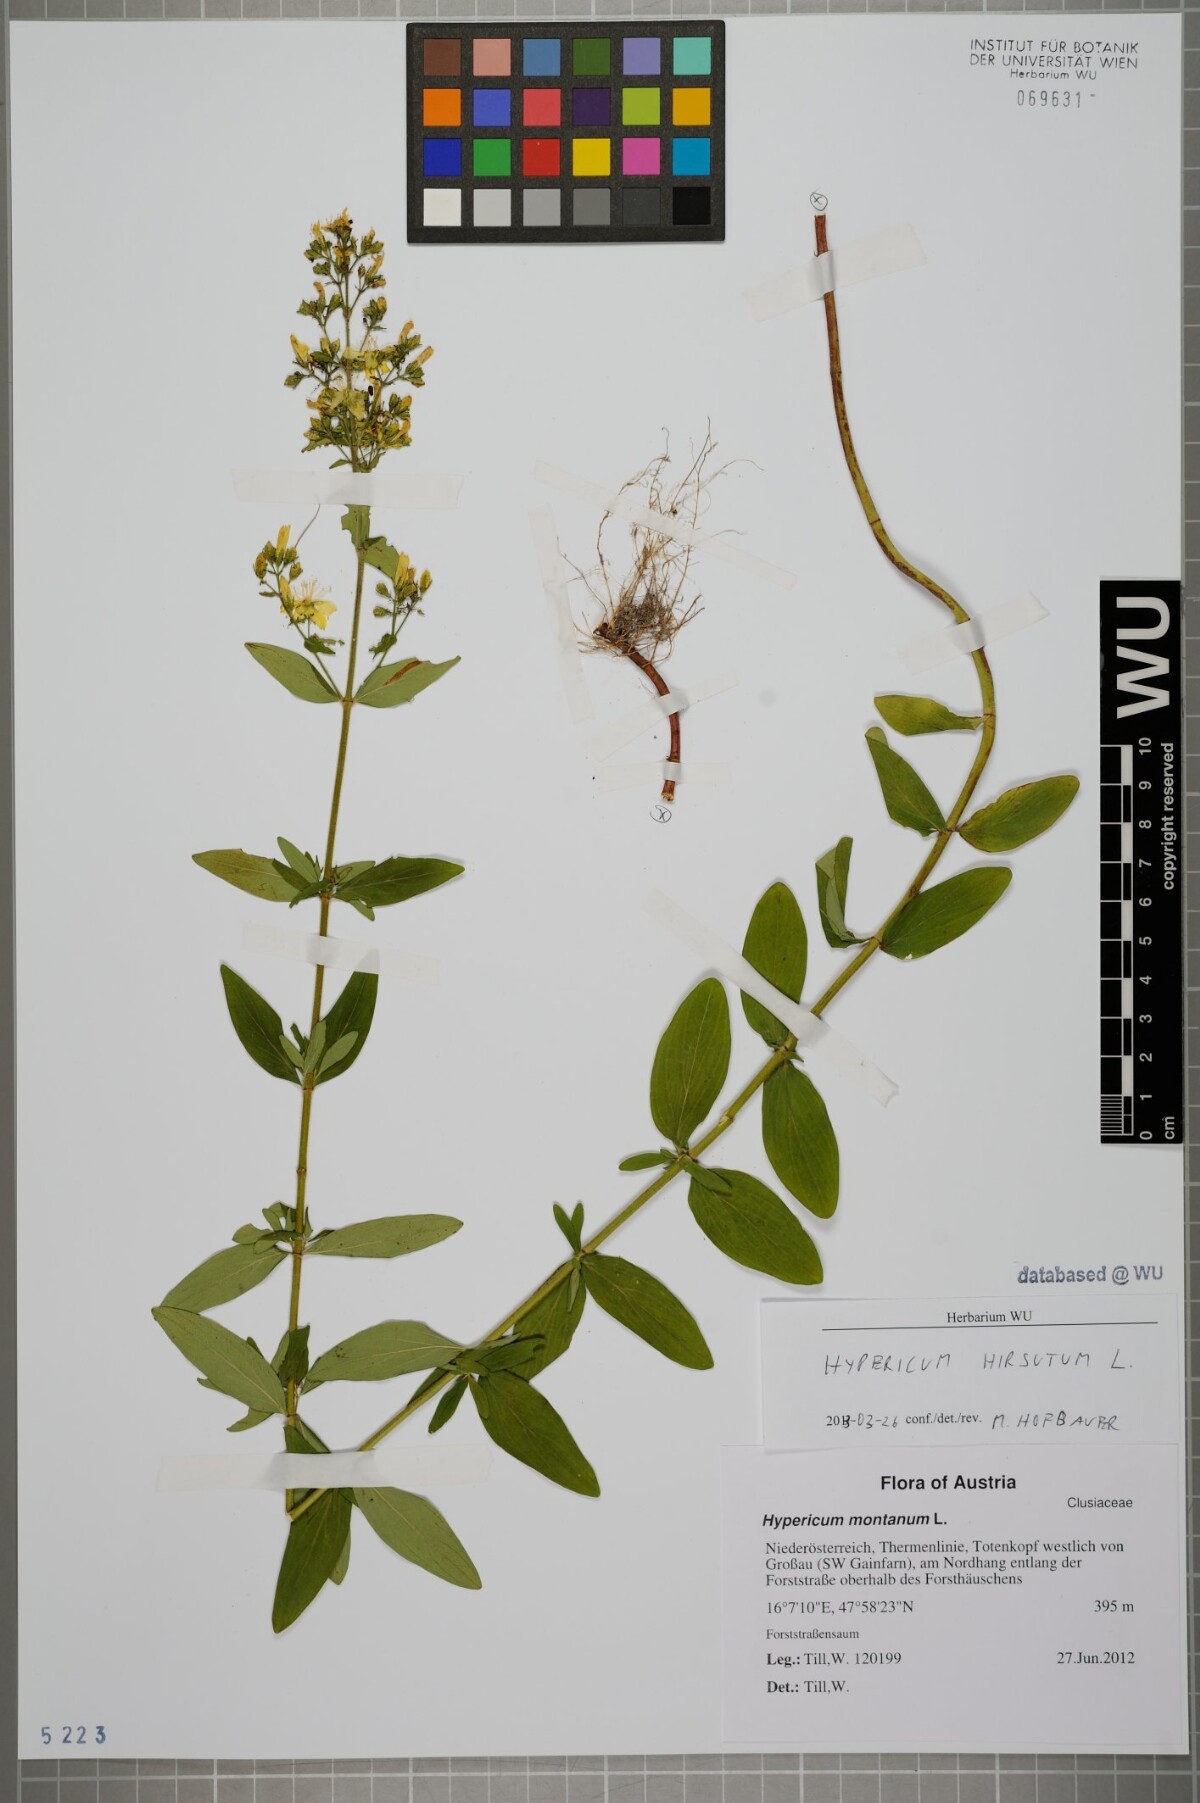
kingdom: Plantae
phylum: Tracheophyta
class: Magnoliopsida
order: Malpighiales
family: Hypericaceae
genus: Hypericum
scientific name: Hypericum hirsutum
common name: Hairy st. john's-wort
